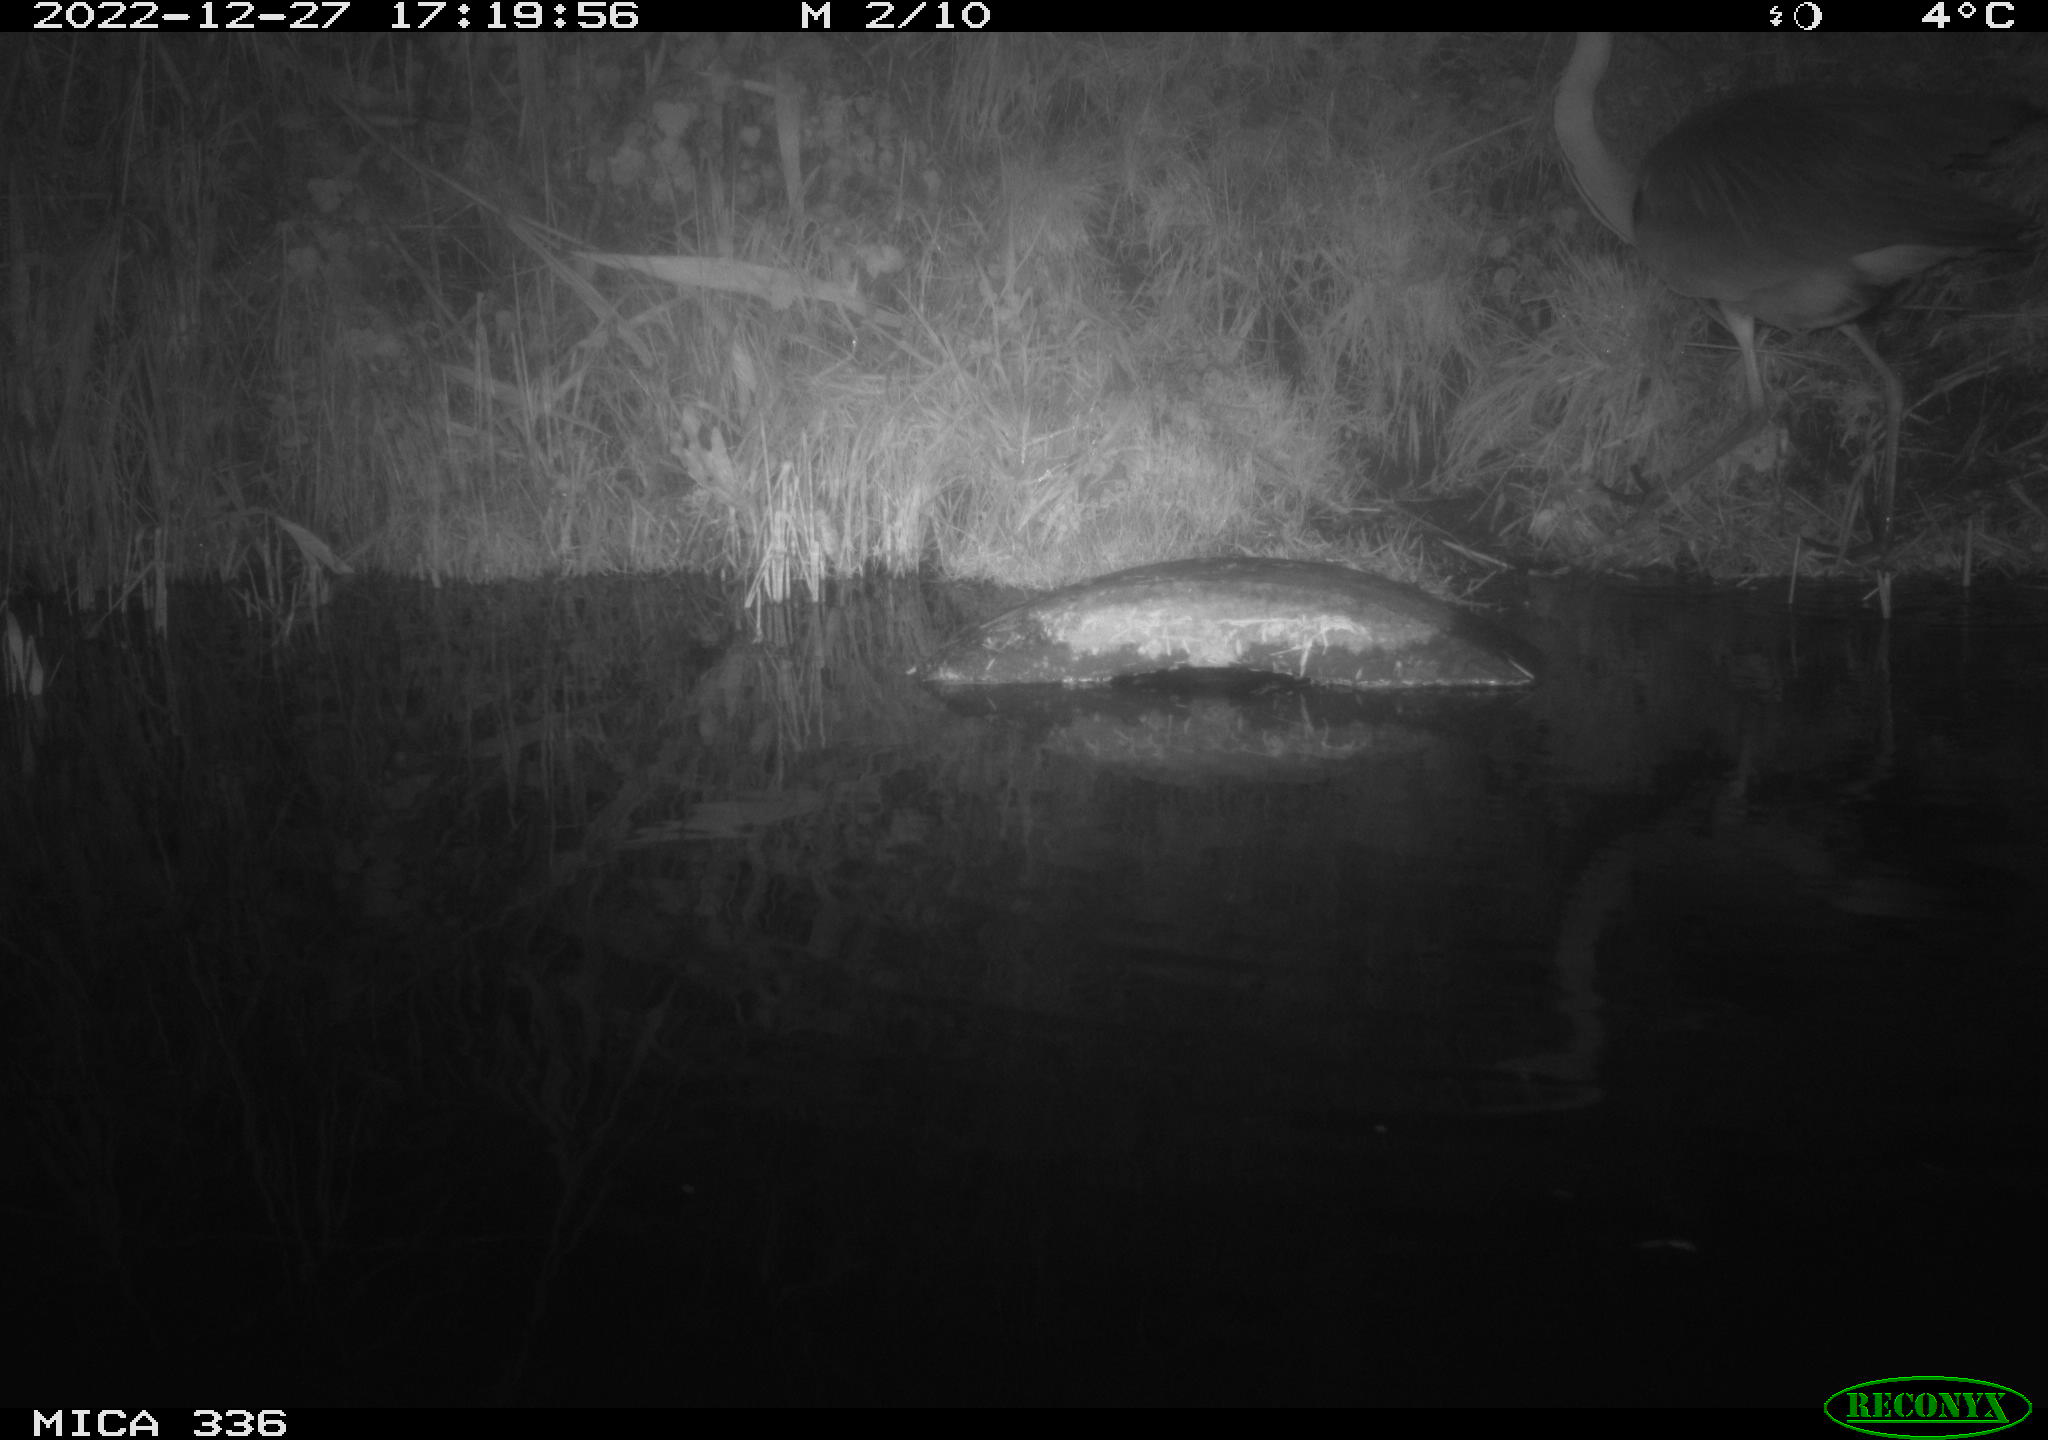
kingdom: Animalia
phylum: Chordata
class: Aves
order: Pelecaniformes
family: Ardeidae
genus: Ardea
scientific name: Ardea cinerea
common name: Grey heron
